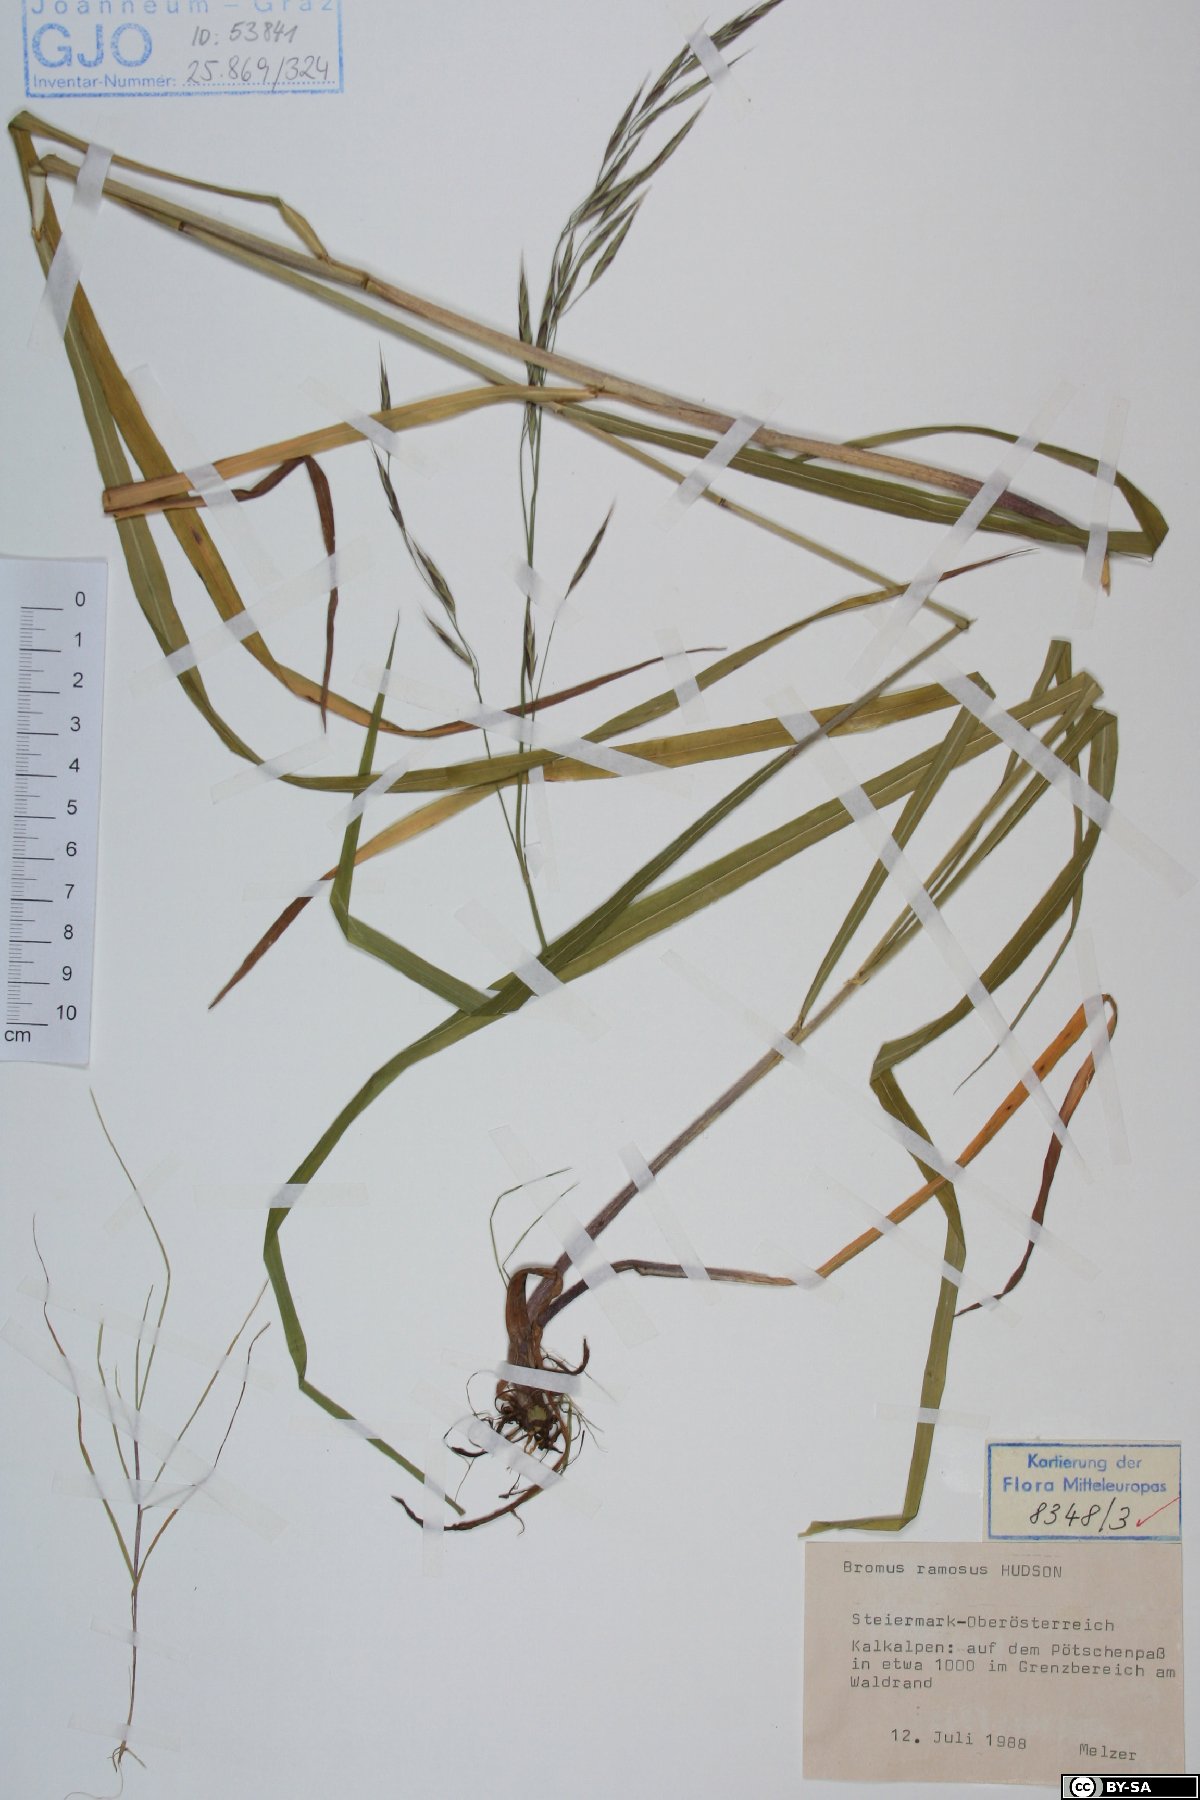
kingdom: Plantae
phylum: Tracheophyta
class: Liliopsida
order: Poales
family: Poaceae
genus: Bromus
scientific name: Bromus ramosus
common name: Hairy brome
